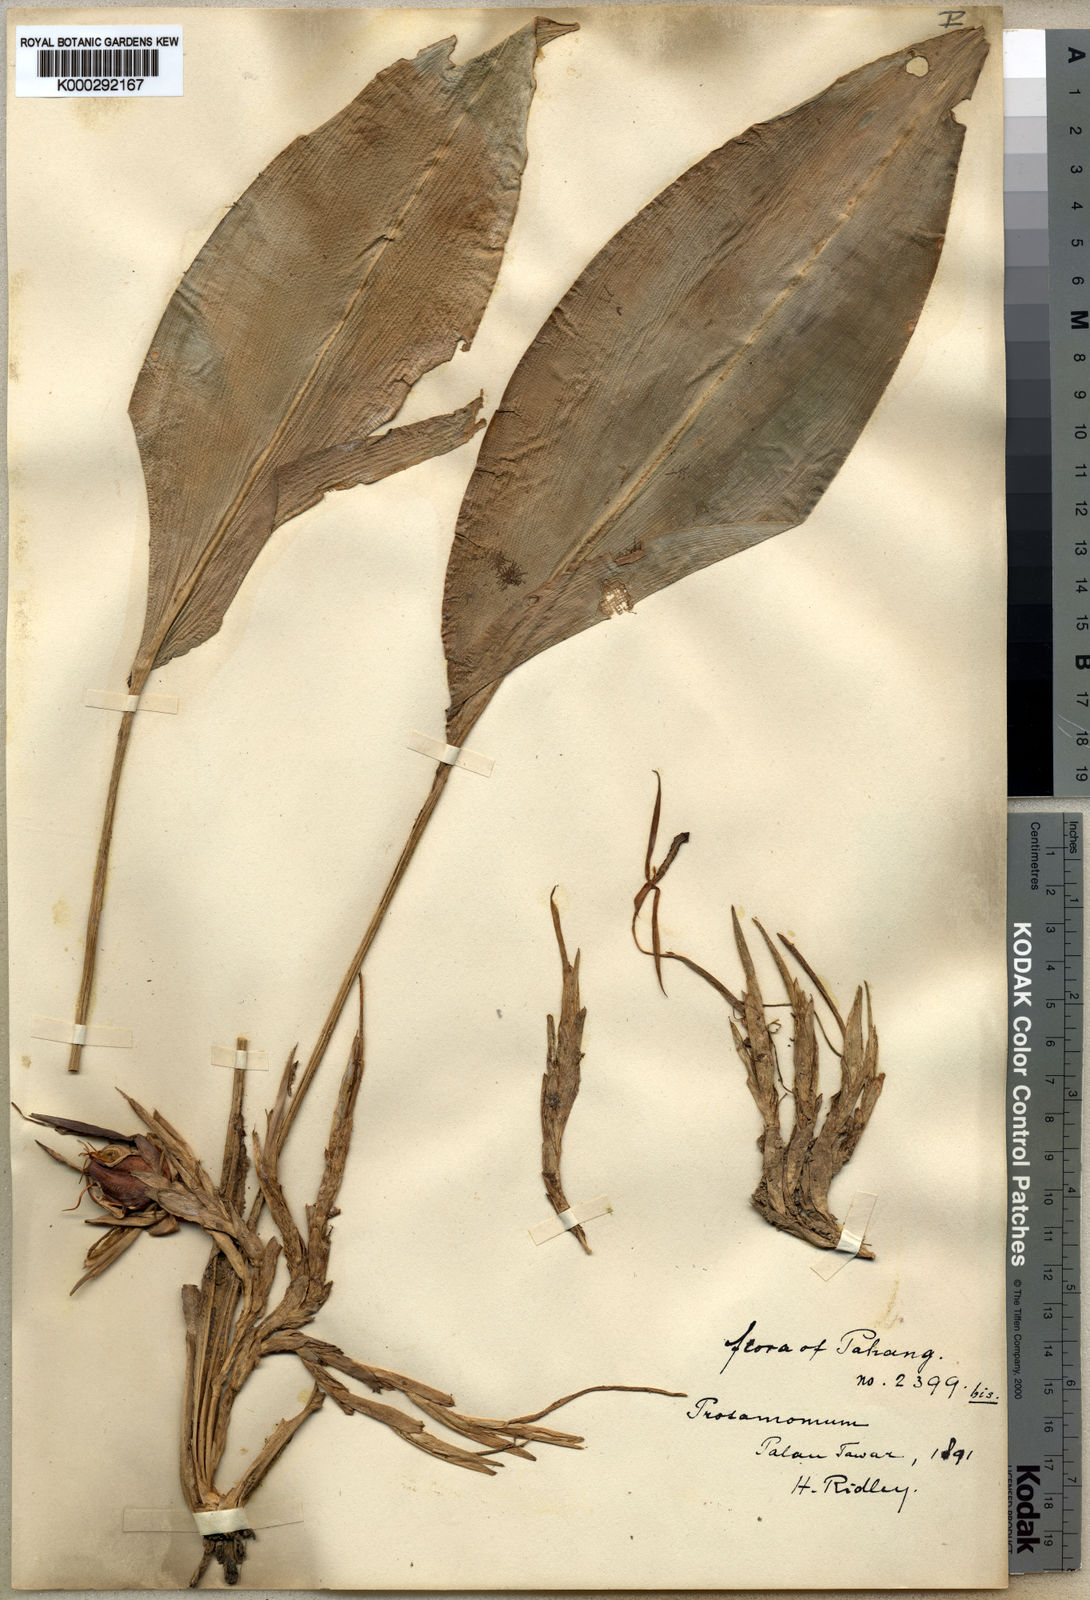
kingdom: Plantae
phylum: Tracheophyta
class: Liliopsida
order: Zingiberales
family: Lowiaceae
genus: Orchidantha
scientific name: Orchidantha maxillarioides
